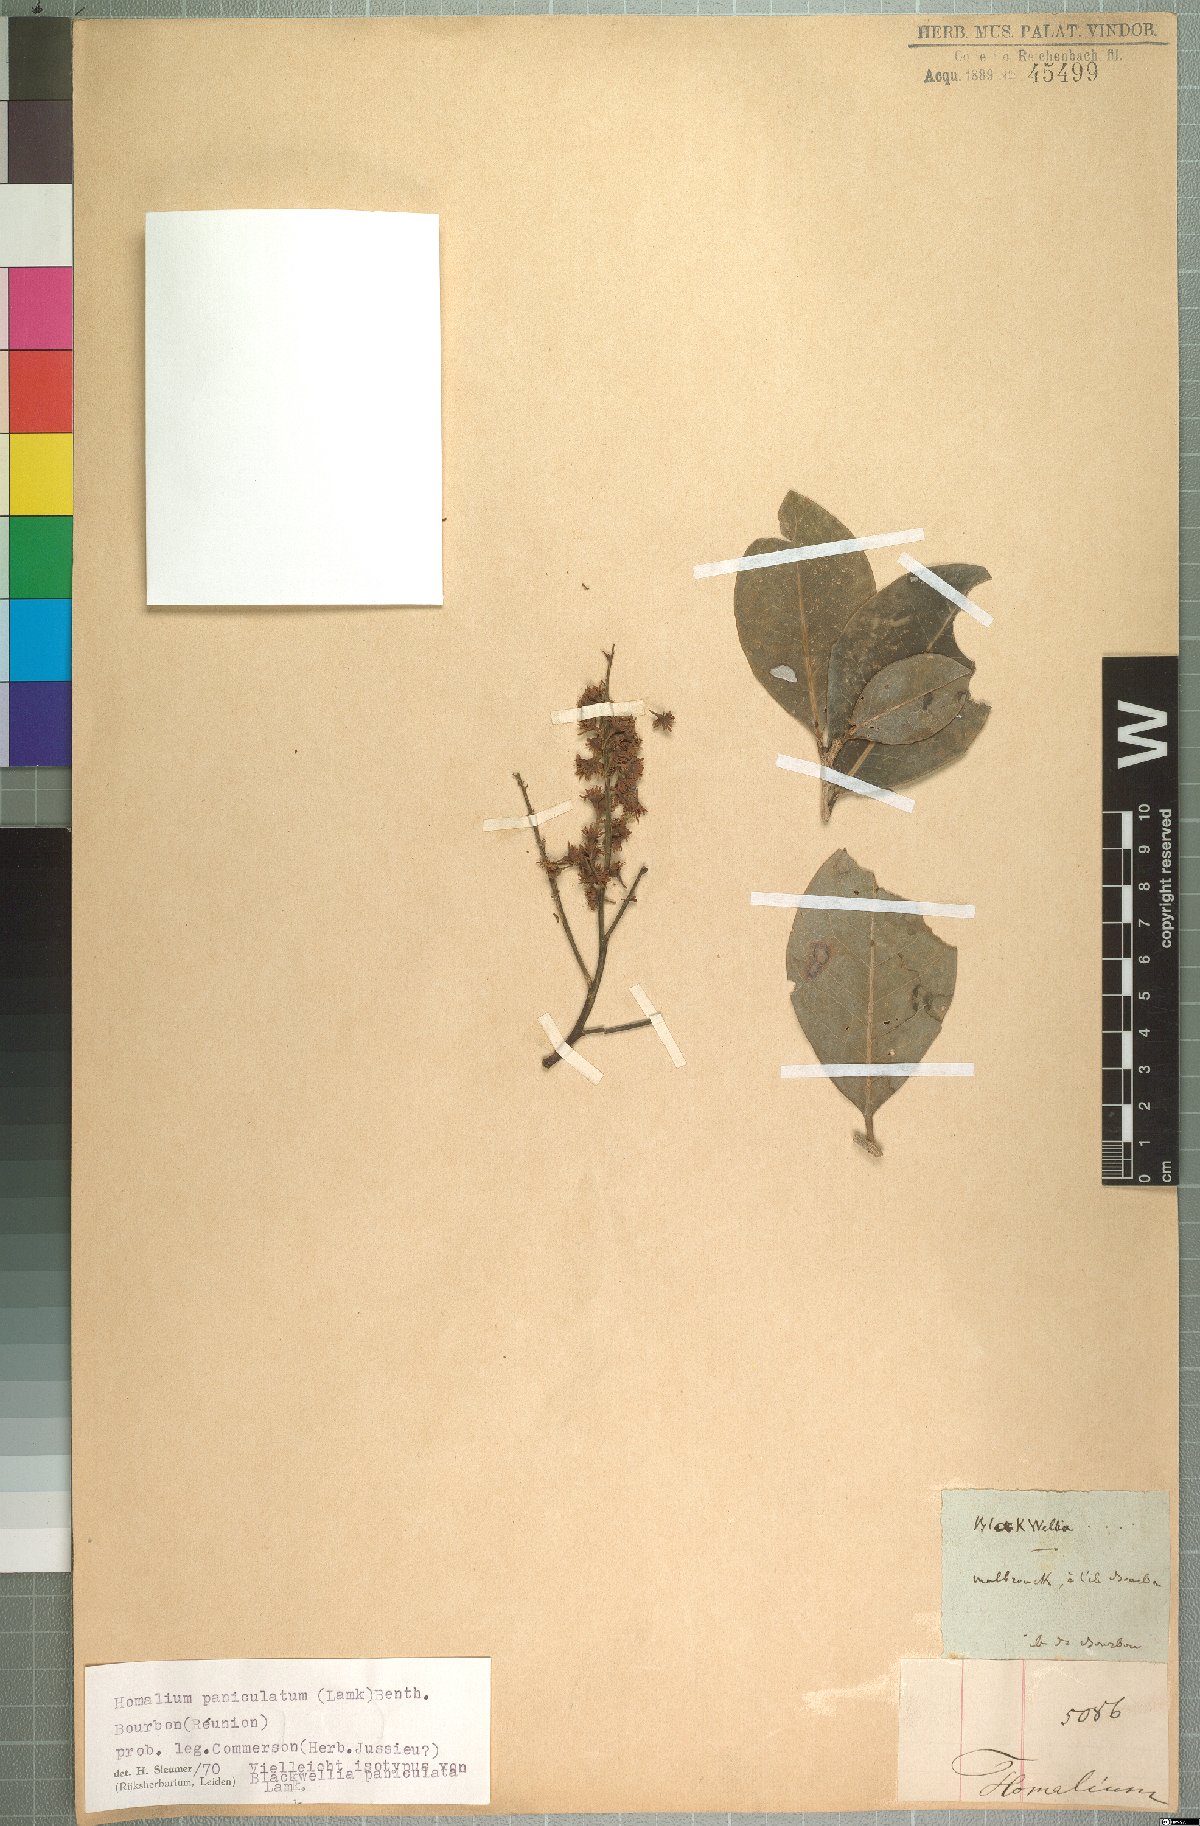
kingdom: Plantae
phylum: Tracheophyta
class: Magnoliopsida
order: Malpighiales
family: Salicaceae
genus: Homalium
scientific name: Homalium erianthum
